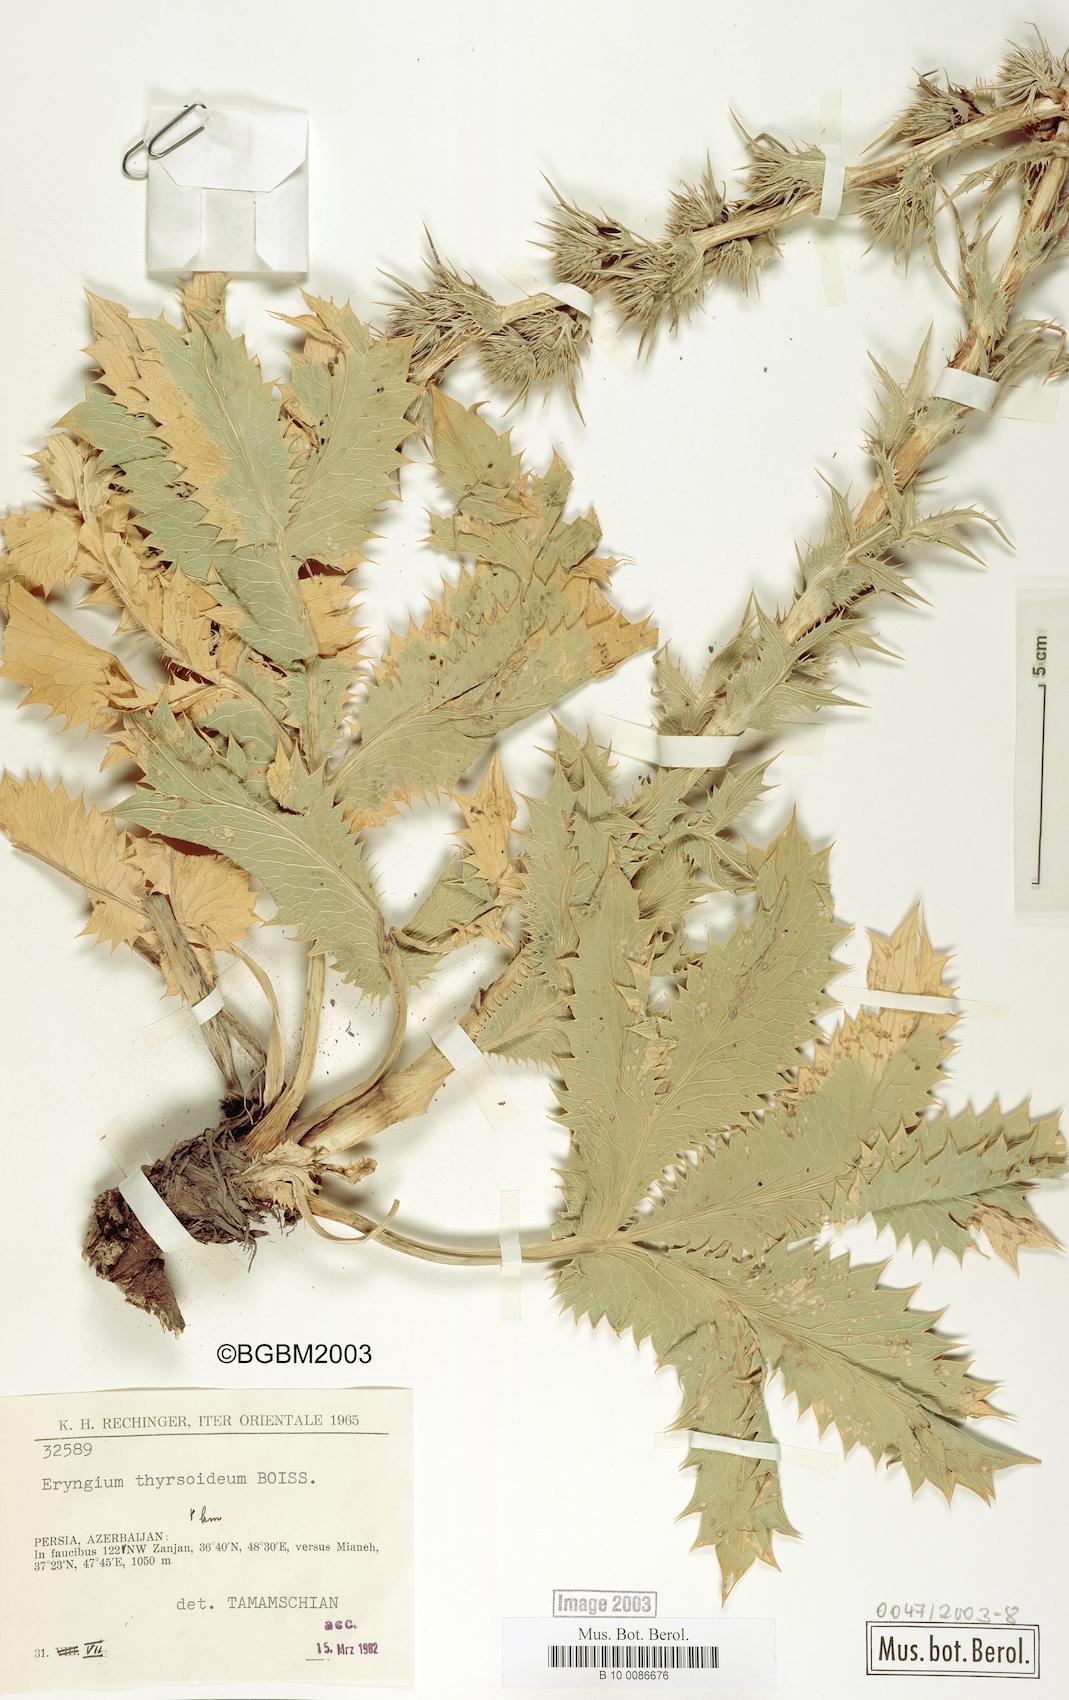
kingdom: Plantae
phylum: Tracheophyta
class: Magnoliopsida
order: Apiales
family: Apiaceae
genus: Eryngium
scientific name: Eryngium thyrsoideum
